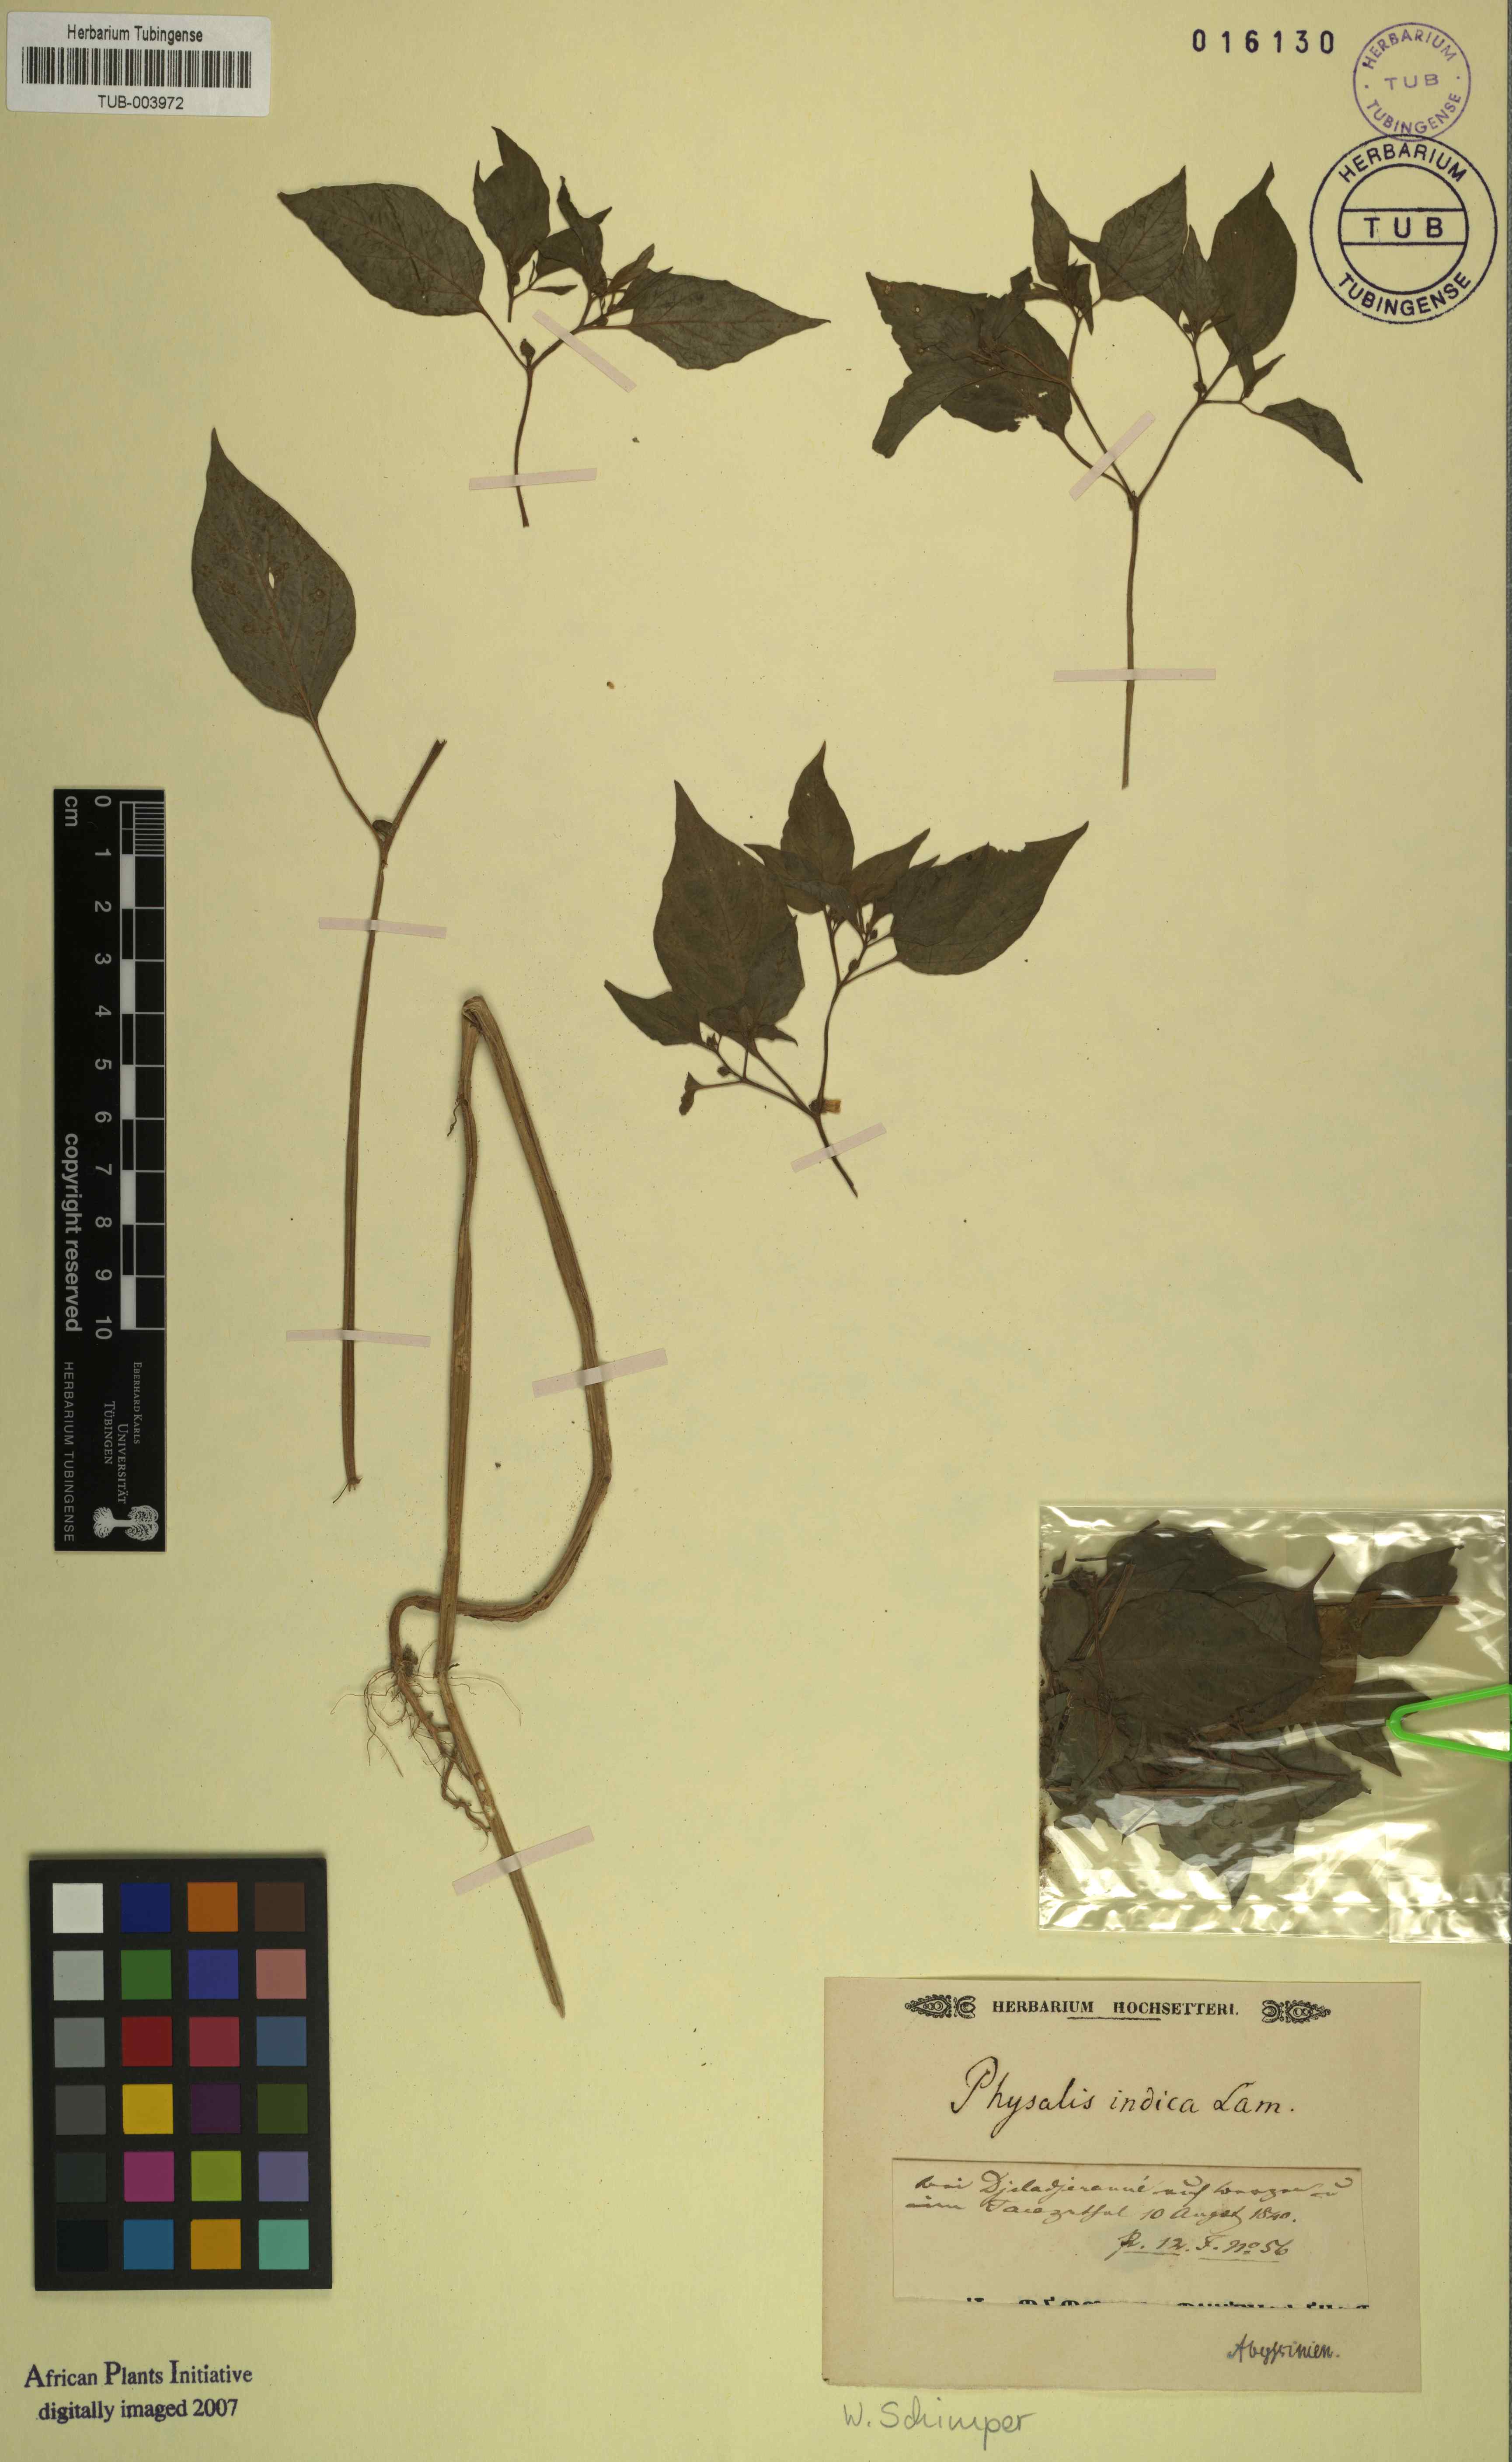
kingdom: Plantae
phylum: Tracheophyta
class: Magnoliopsida
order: Solanales
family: Solanaceae
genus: Physalis
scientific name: Physalis angulata
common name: Angular winter-cherry
